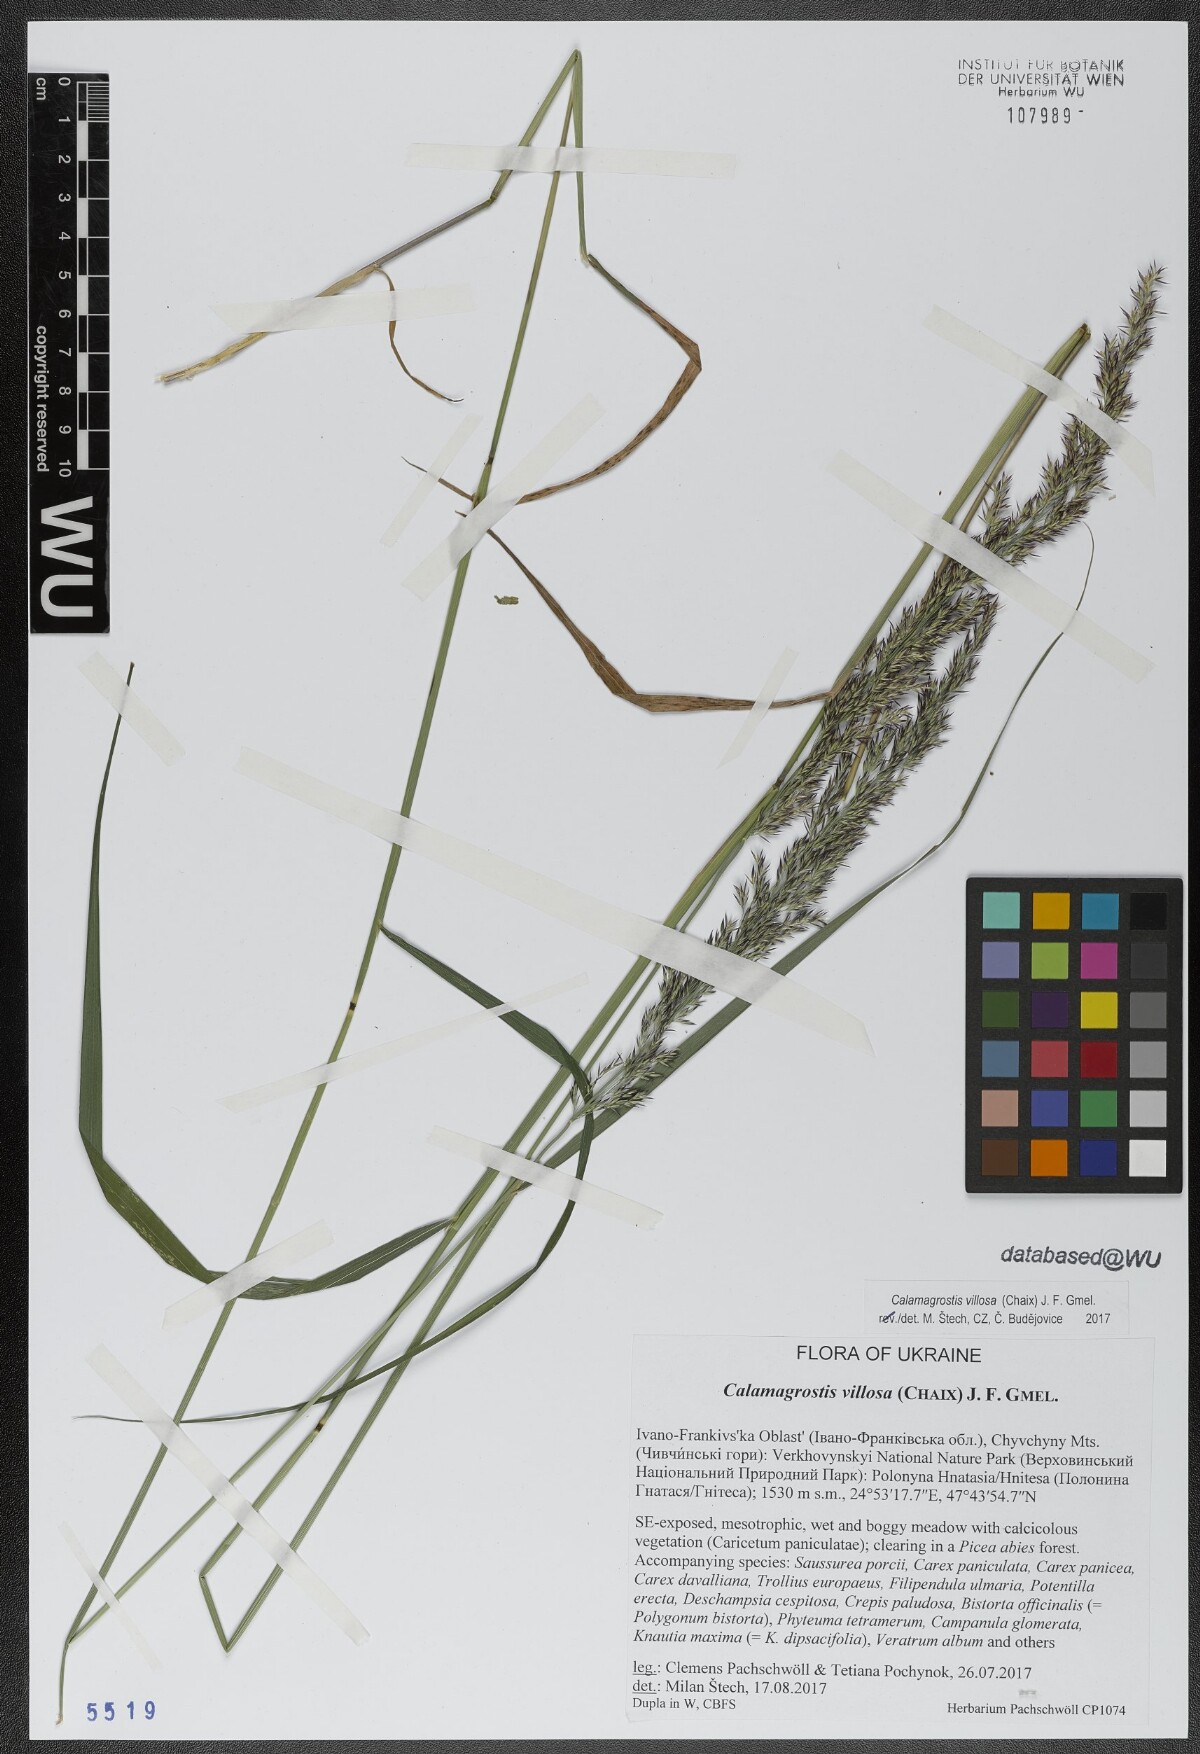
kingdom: Plantae
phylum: Tracheophyta
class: Liliopsida
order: Poales
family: Poaceae
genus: Calamagrostis
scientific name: Calamagrostis villosa
